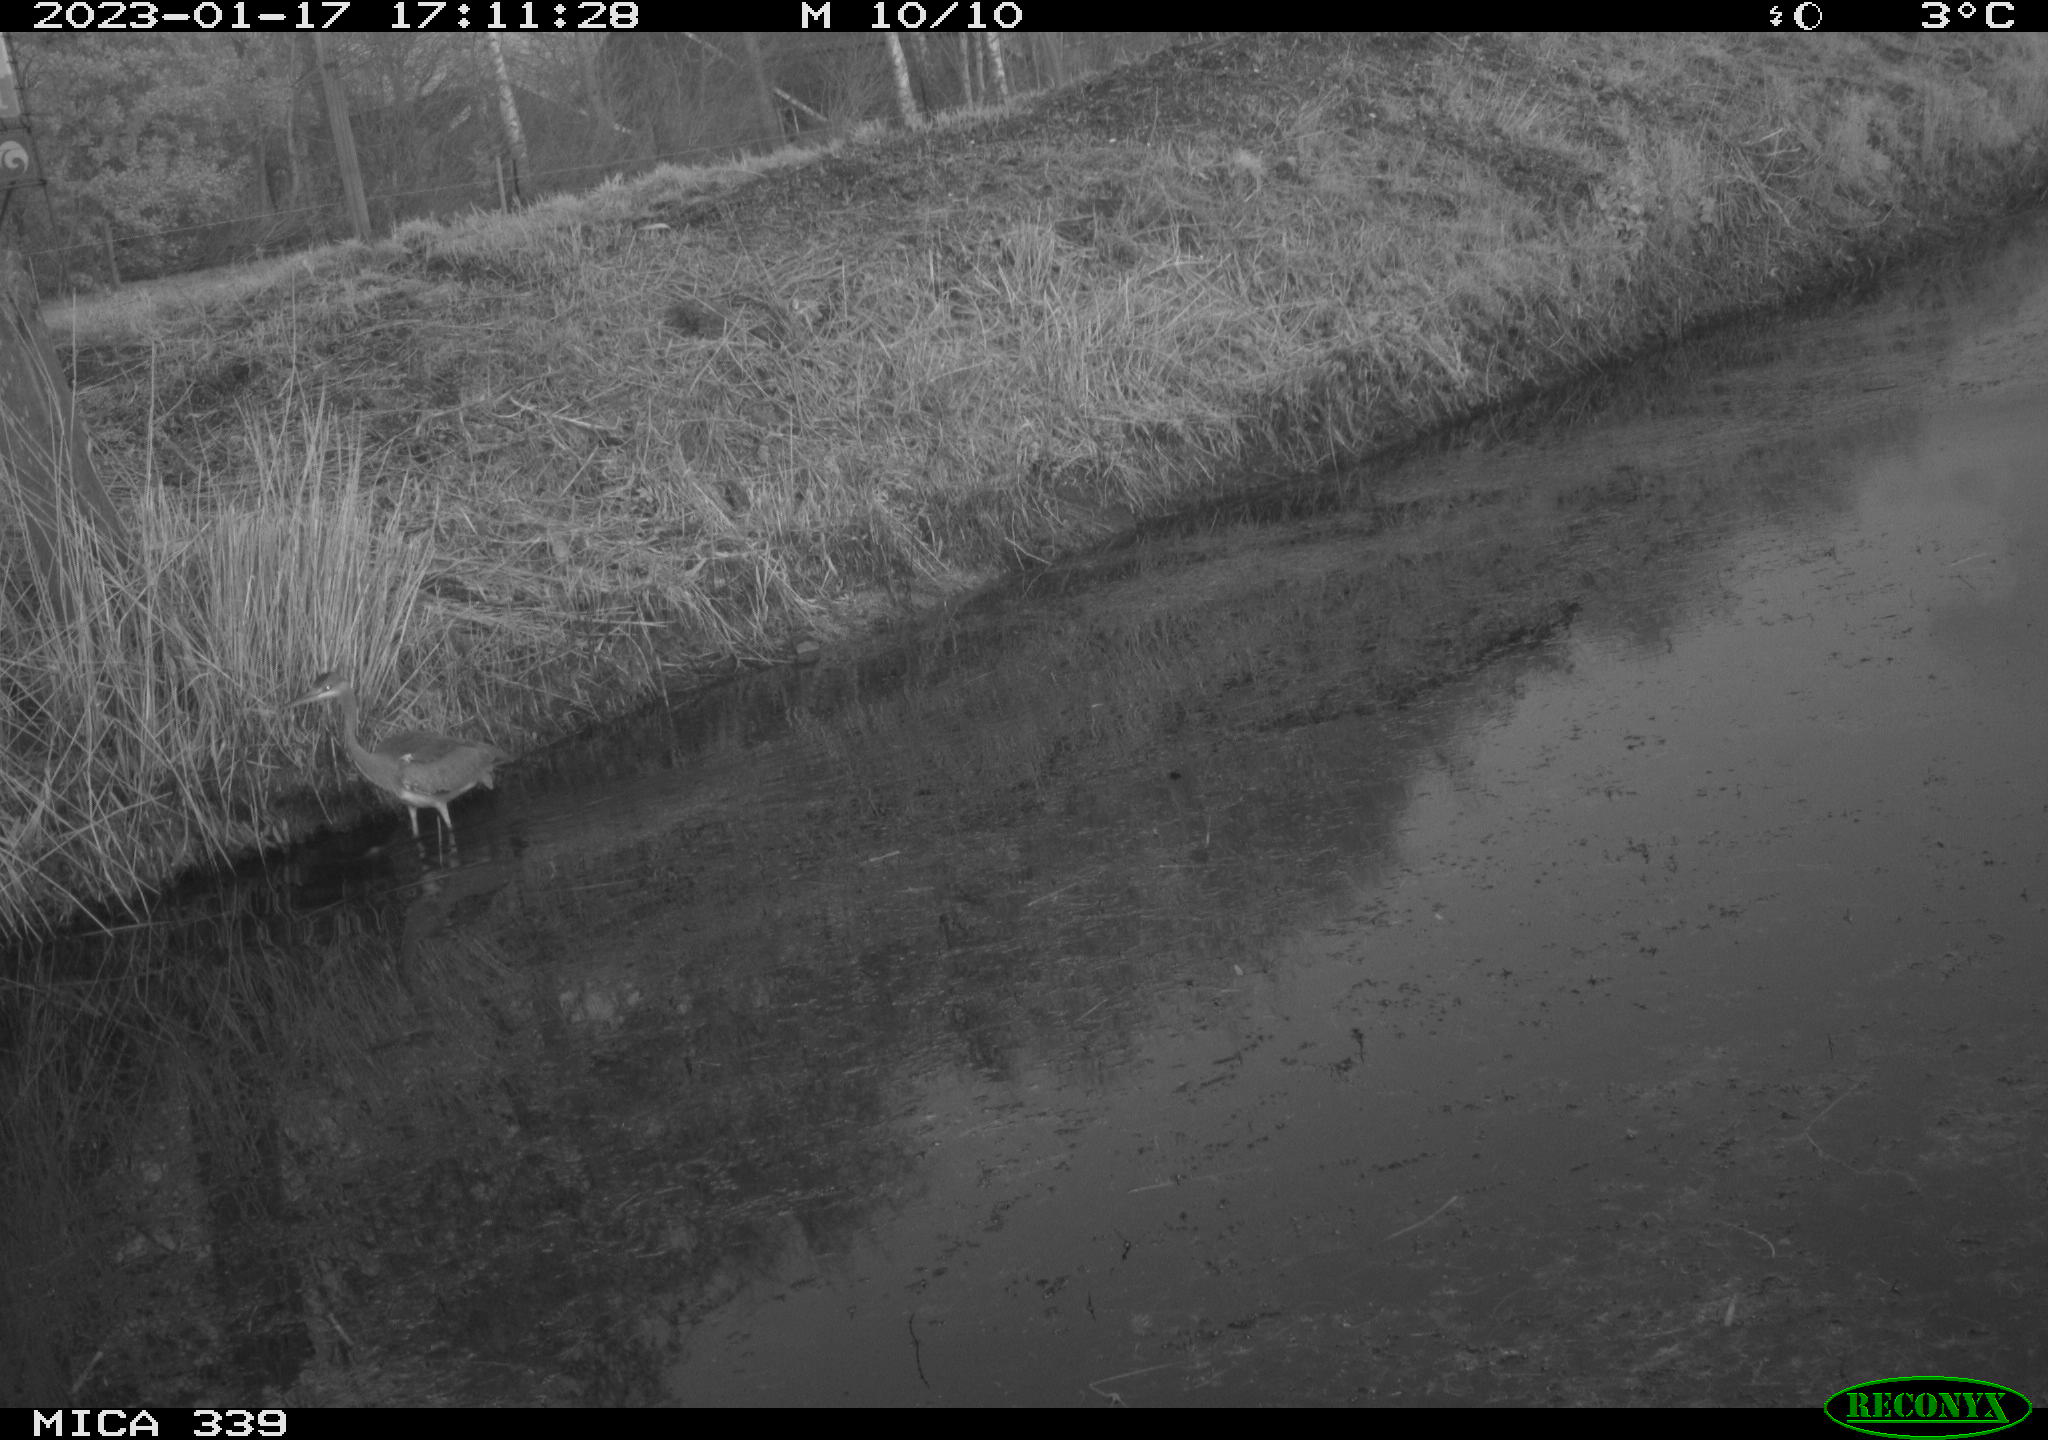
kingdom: Animalia
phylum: Chordata
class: Aves
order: Pelecaniformes
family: Ardeidae
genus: Ardea
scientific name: Ardea cinerea
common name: Grey heron
